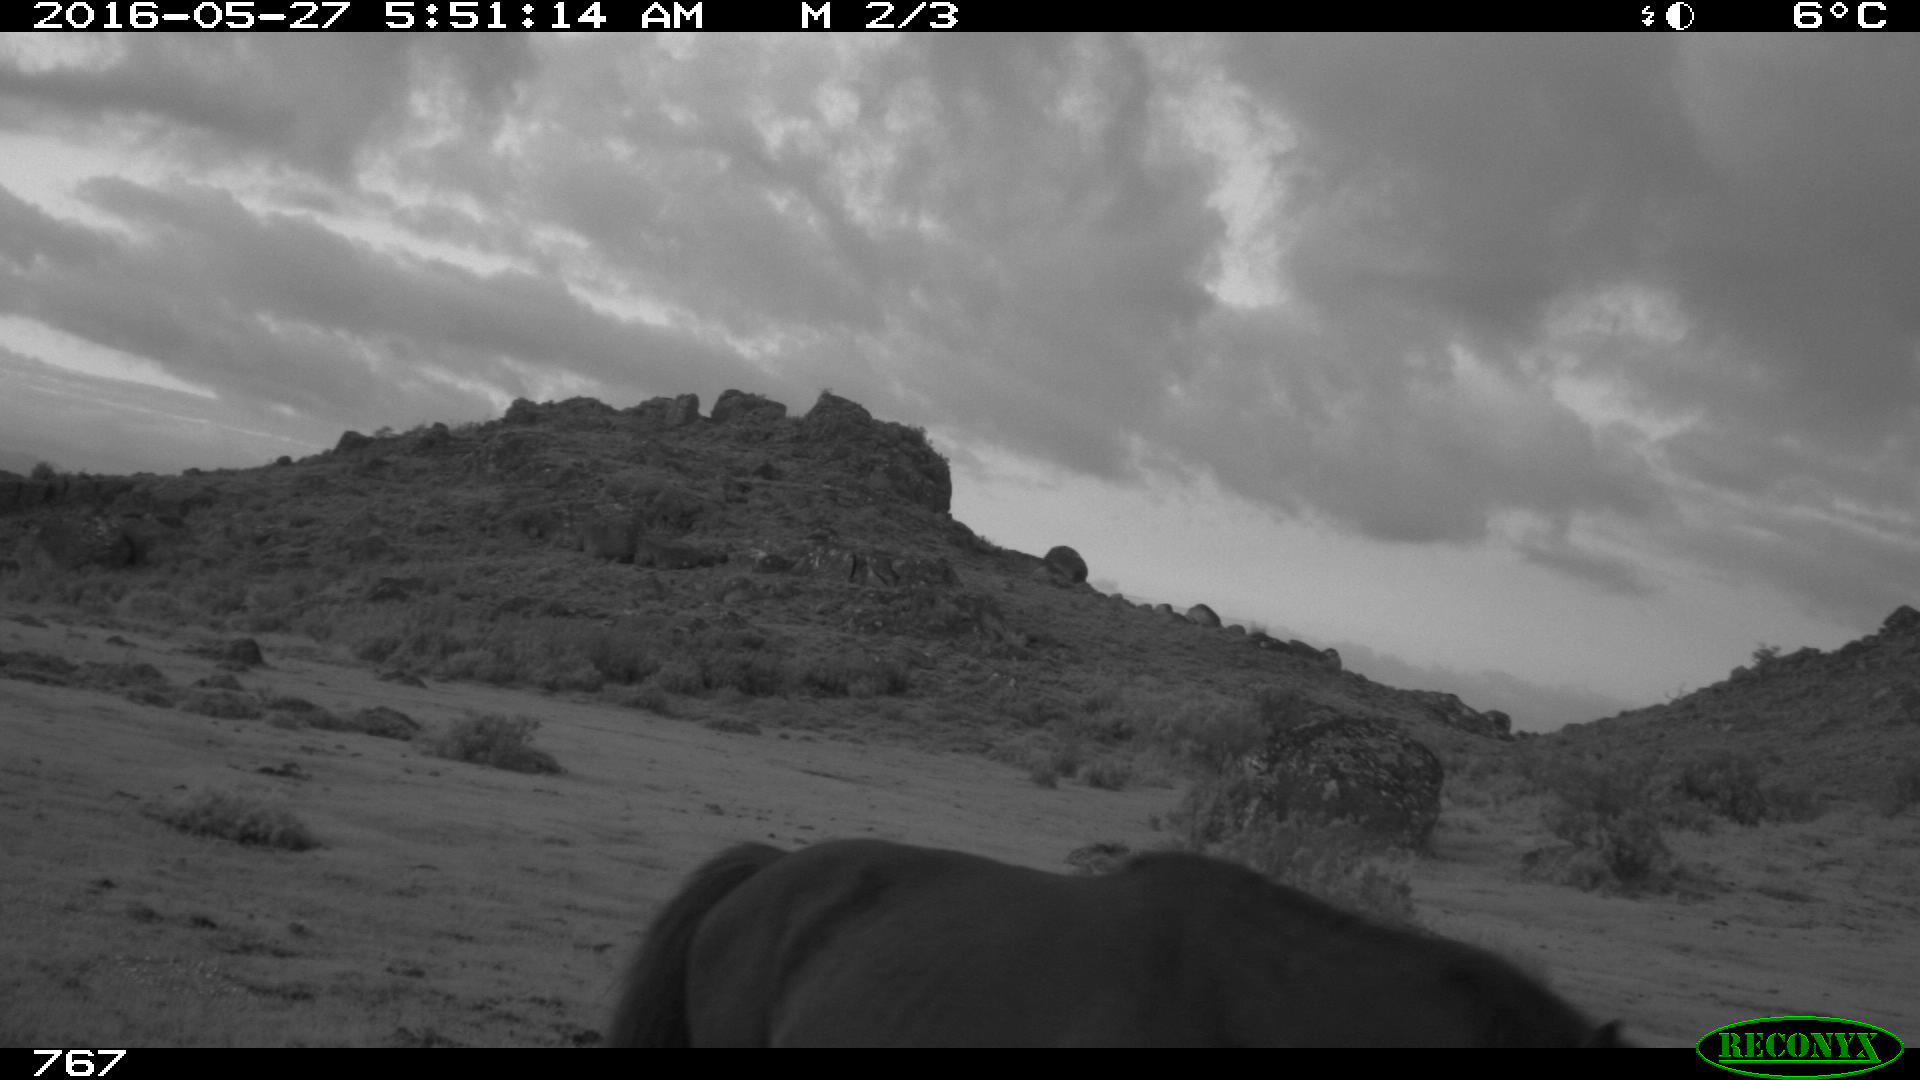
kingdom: Animalia
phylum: Chordata
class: Mammalia
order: Perissodactyla
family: Equidae
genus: Equus
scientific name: Equus caballus
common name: Horse
